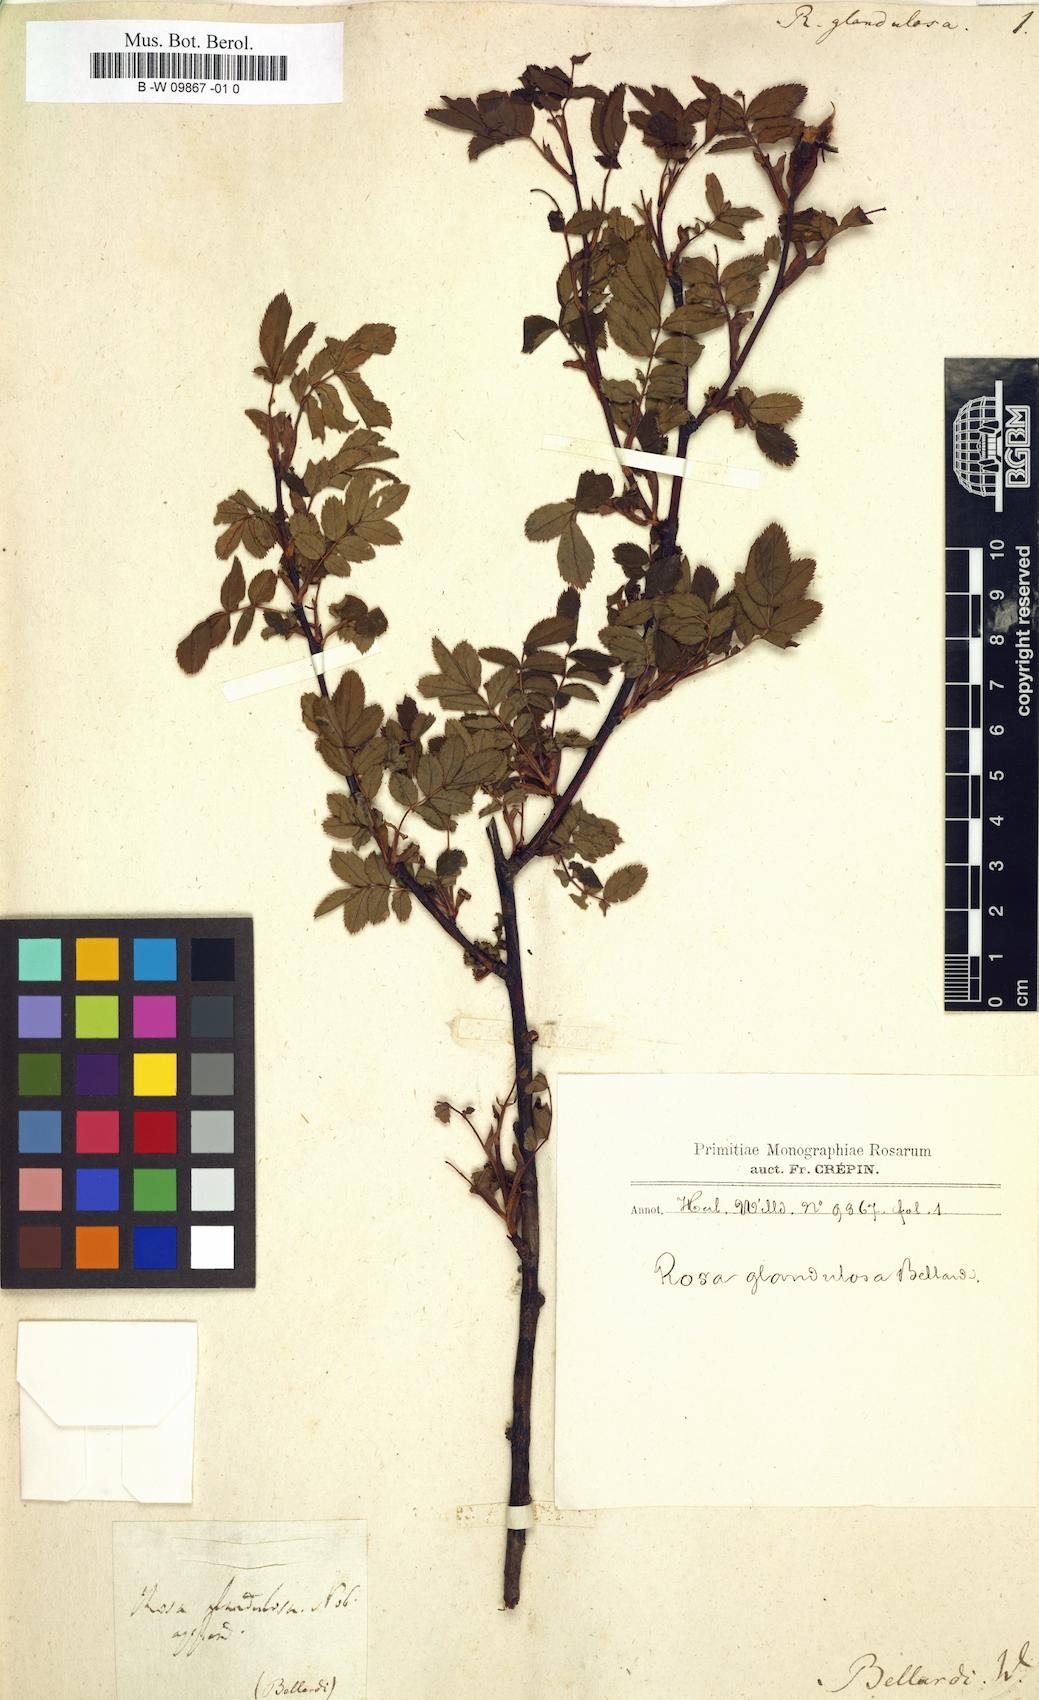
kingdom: Plantae
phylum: Tracheophyta
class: Magnoliopsida
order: Rosales
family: Rosaceae
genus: Rosa
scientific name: Rosa
